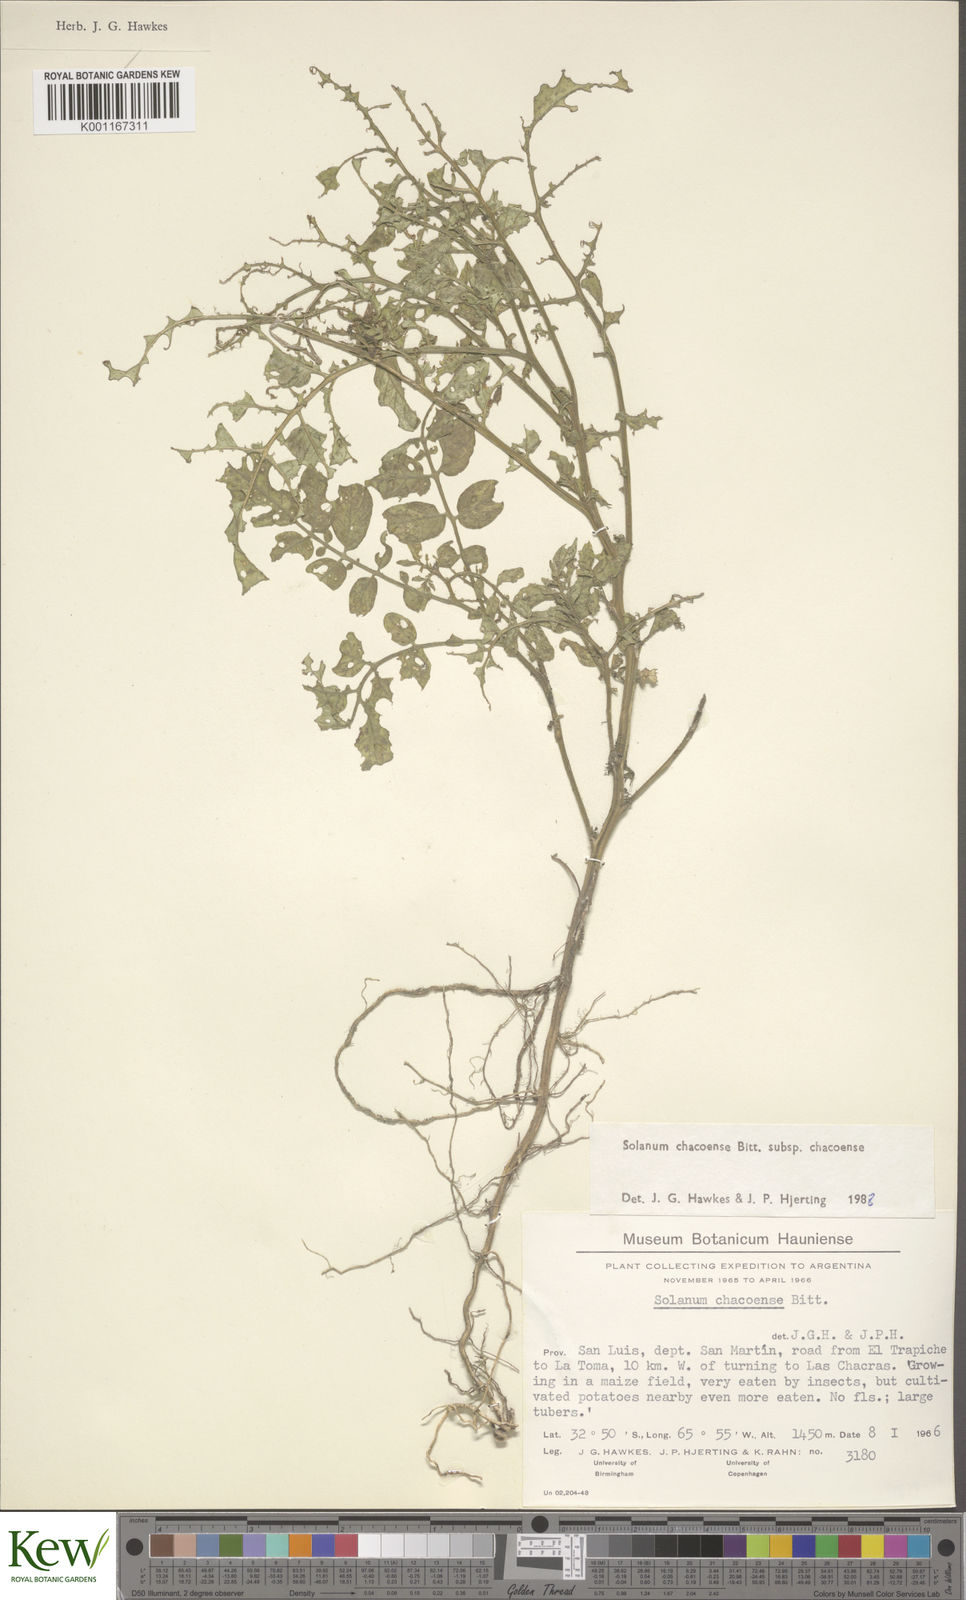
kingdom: Plantae
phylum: Tracheophyta
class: Magnoliopsida
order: Solanales
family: Solanaceae
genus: Solanum
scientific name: Solanum chacoense
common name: Chaco potato
